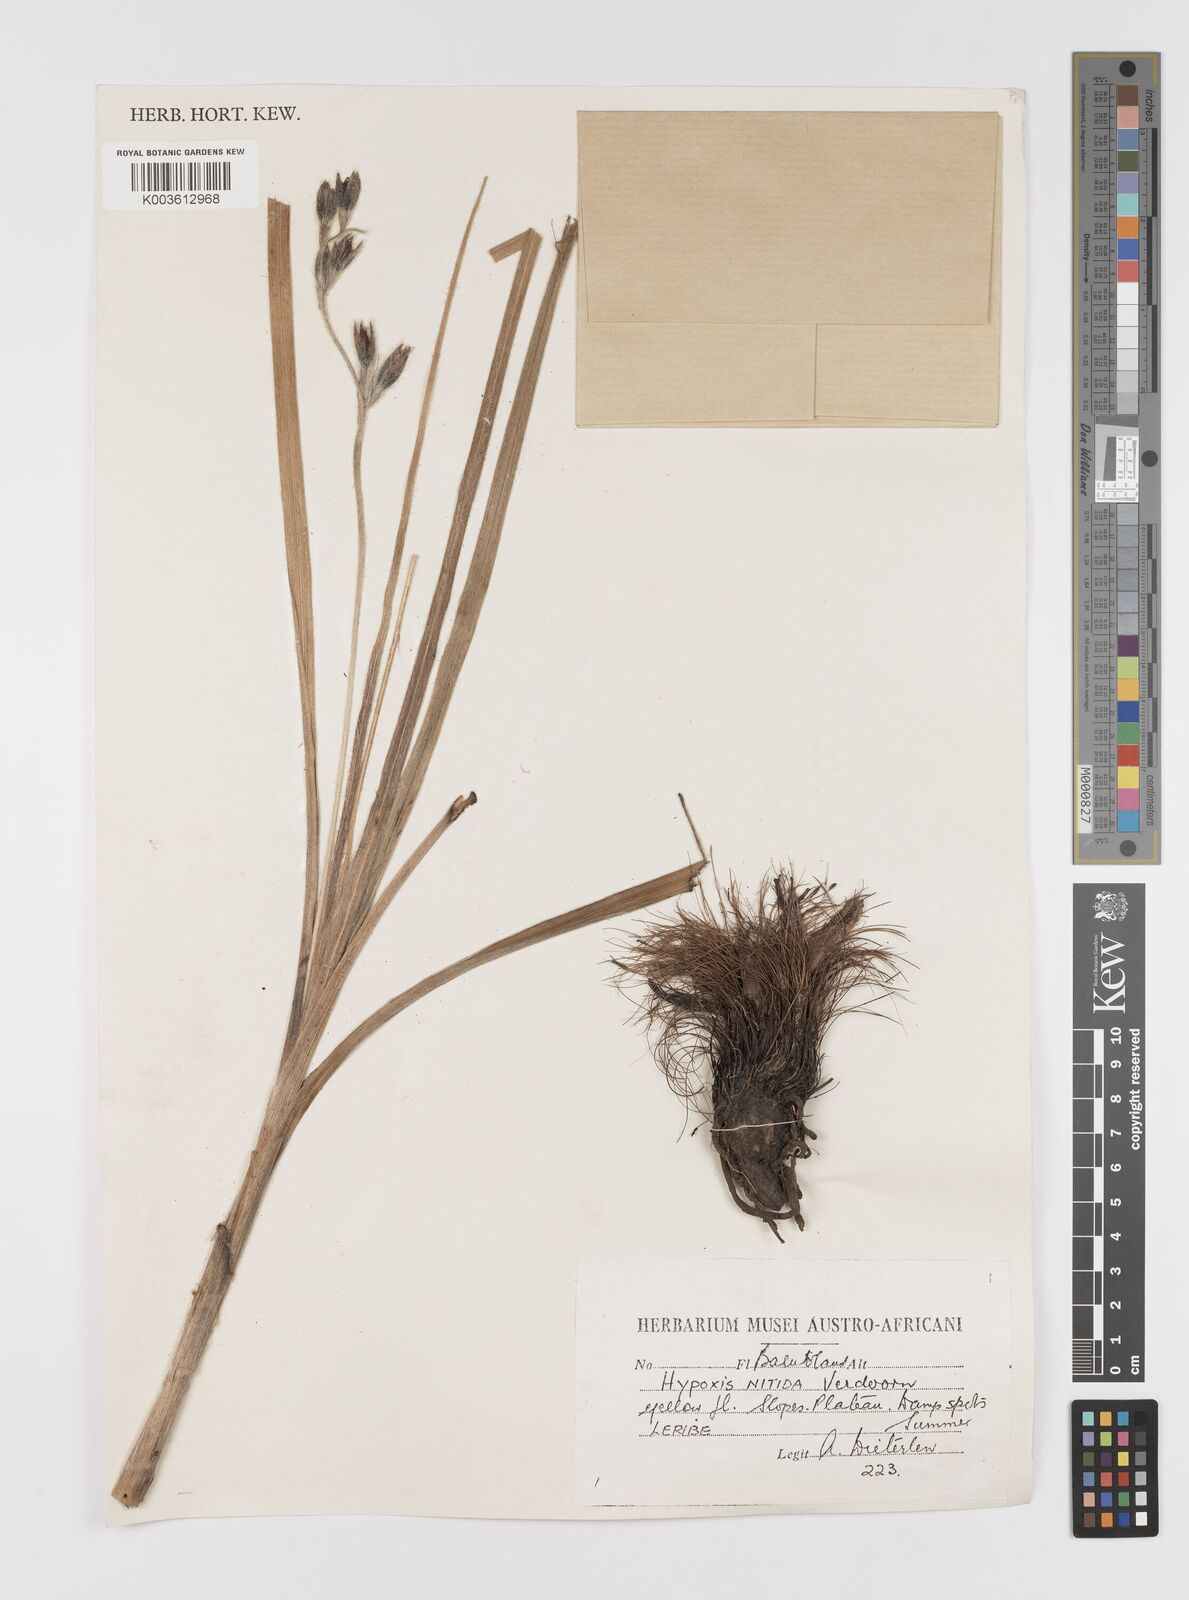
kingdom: Plantae
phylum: Tracheophyta
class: Liliopsida
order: Asparagales
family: Hypoxidaceae
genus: Hypoxis
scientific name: Hypoxis rigidula
